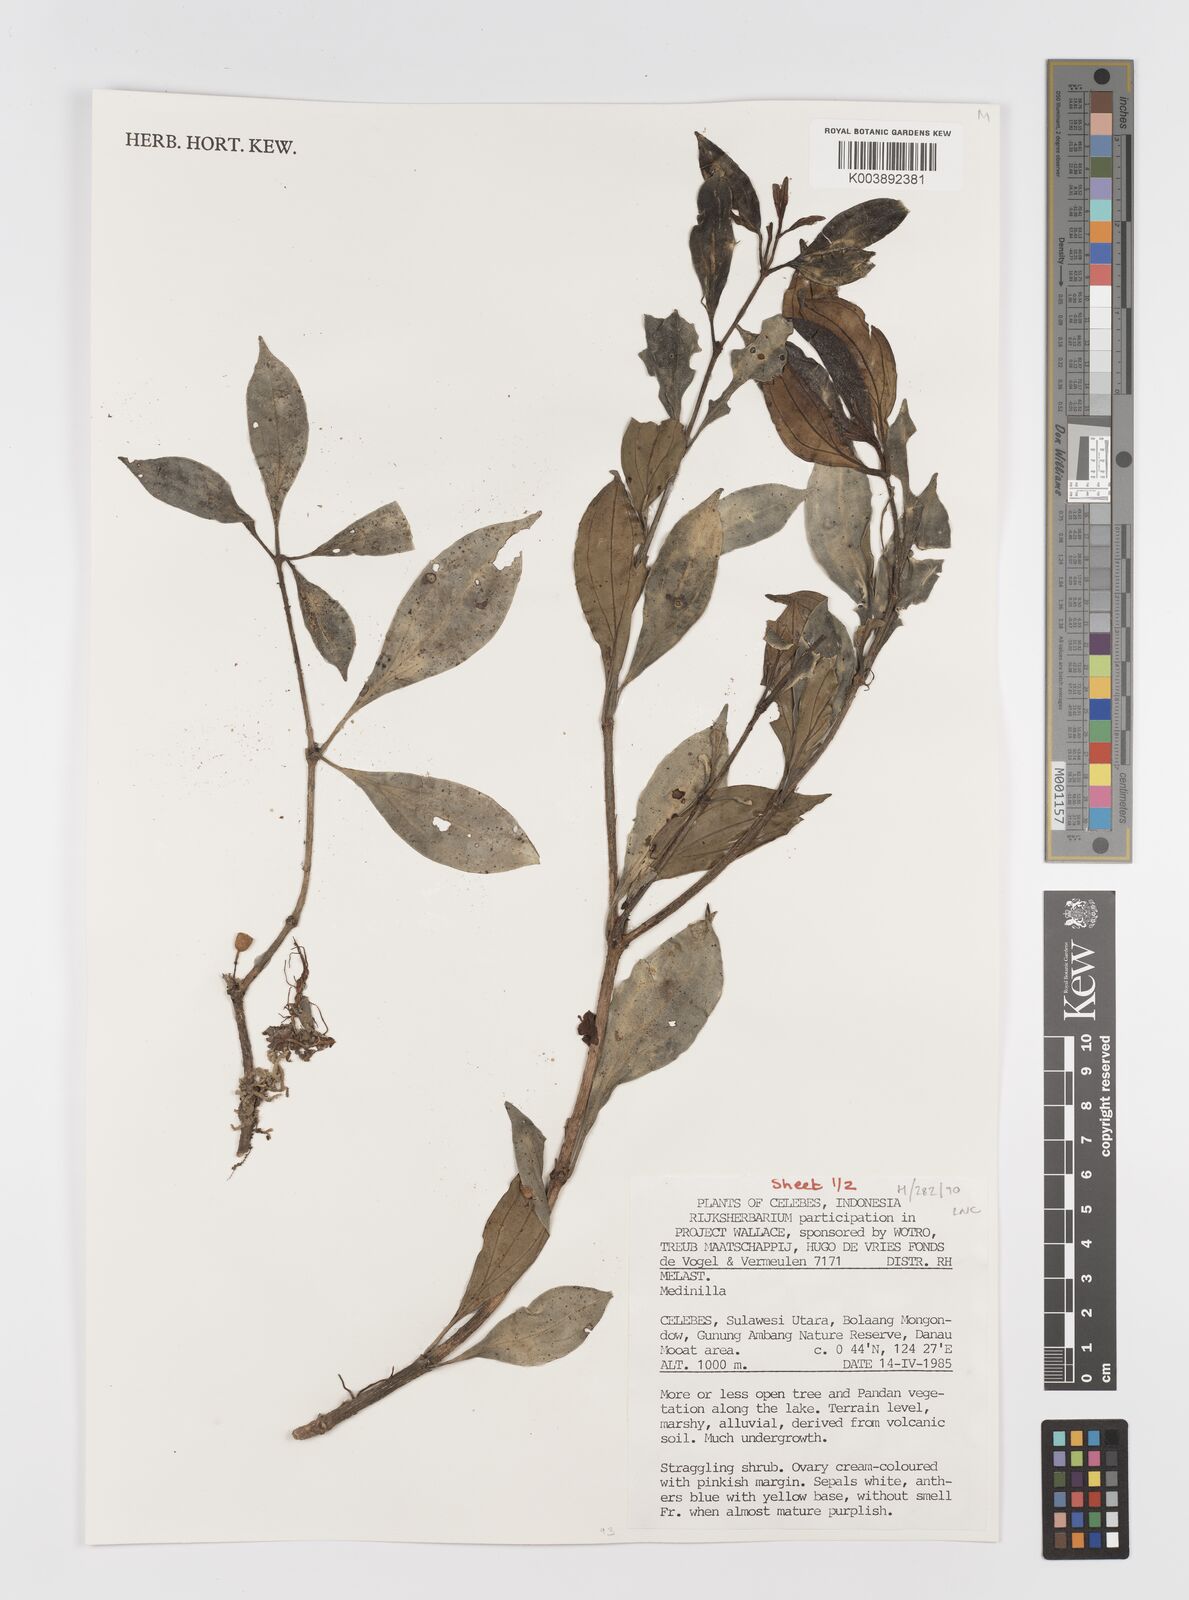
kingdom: Plantae
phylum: Tracheophyta
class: Magnoliopsida
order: Myrtales
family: Melastomataceae
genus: Medinilla
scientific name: Medinilla
